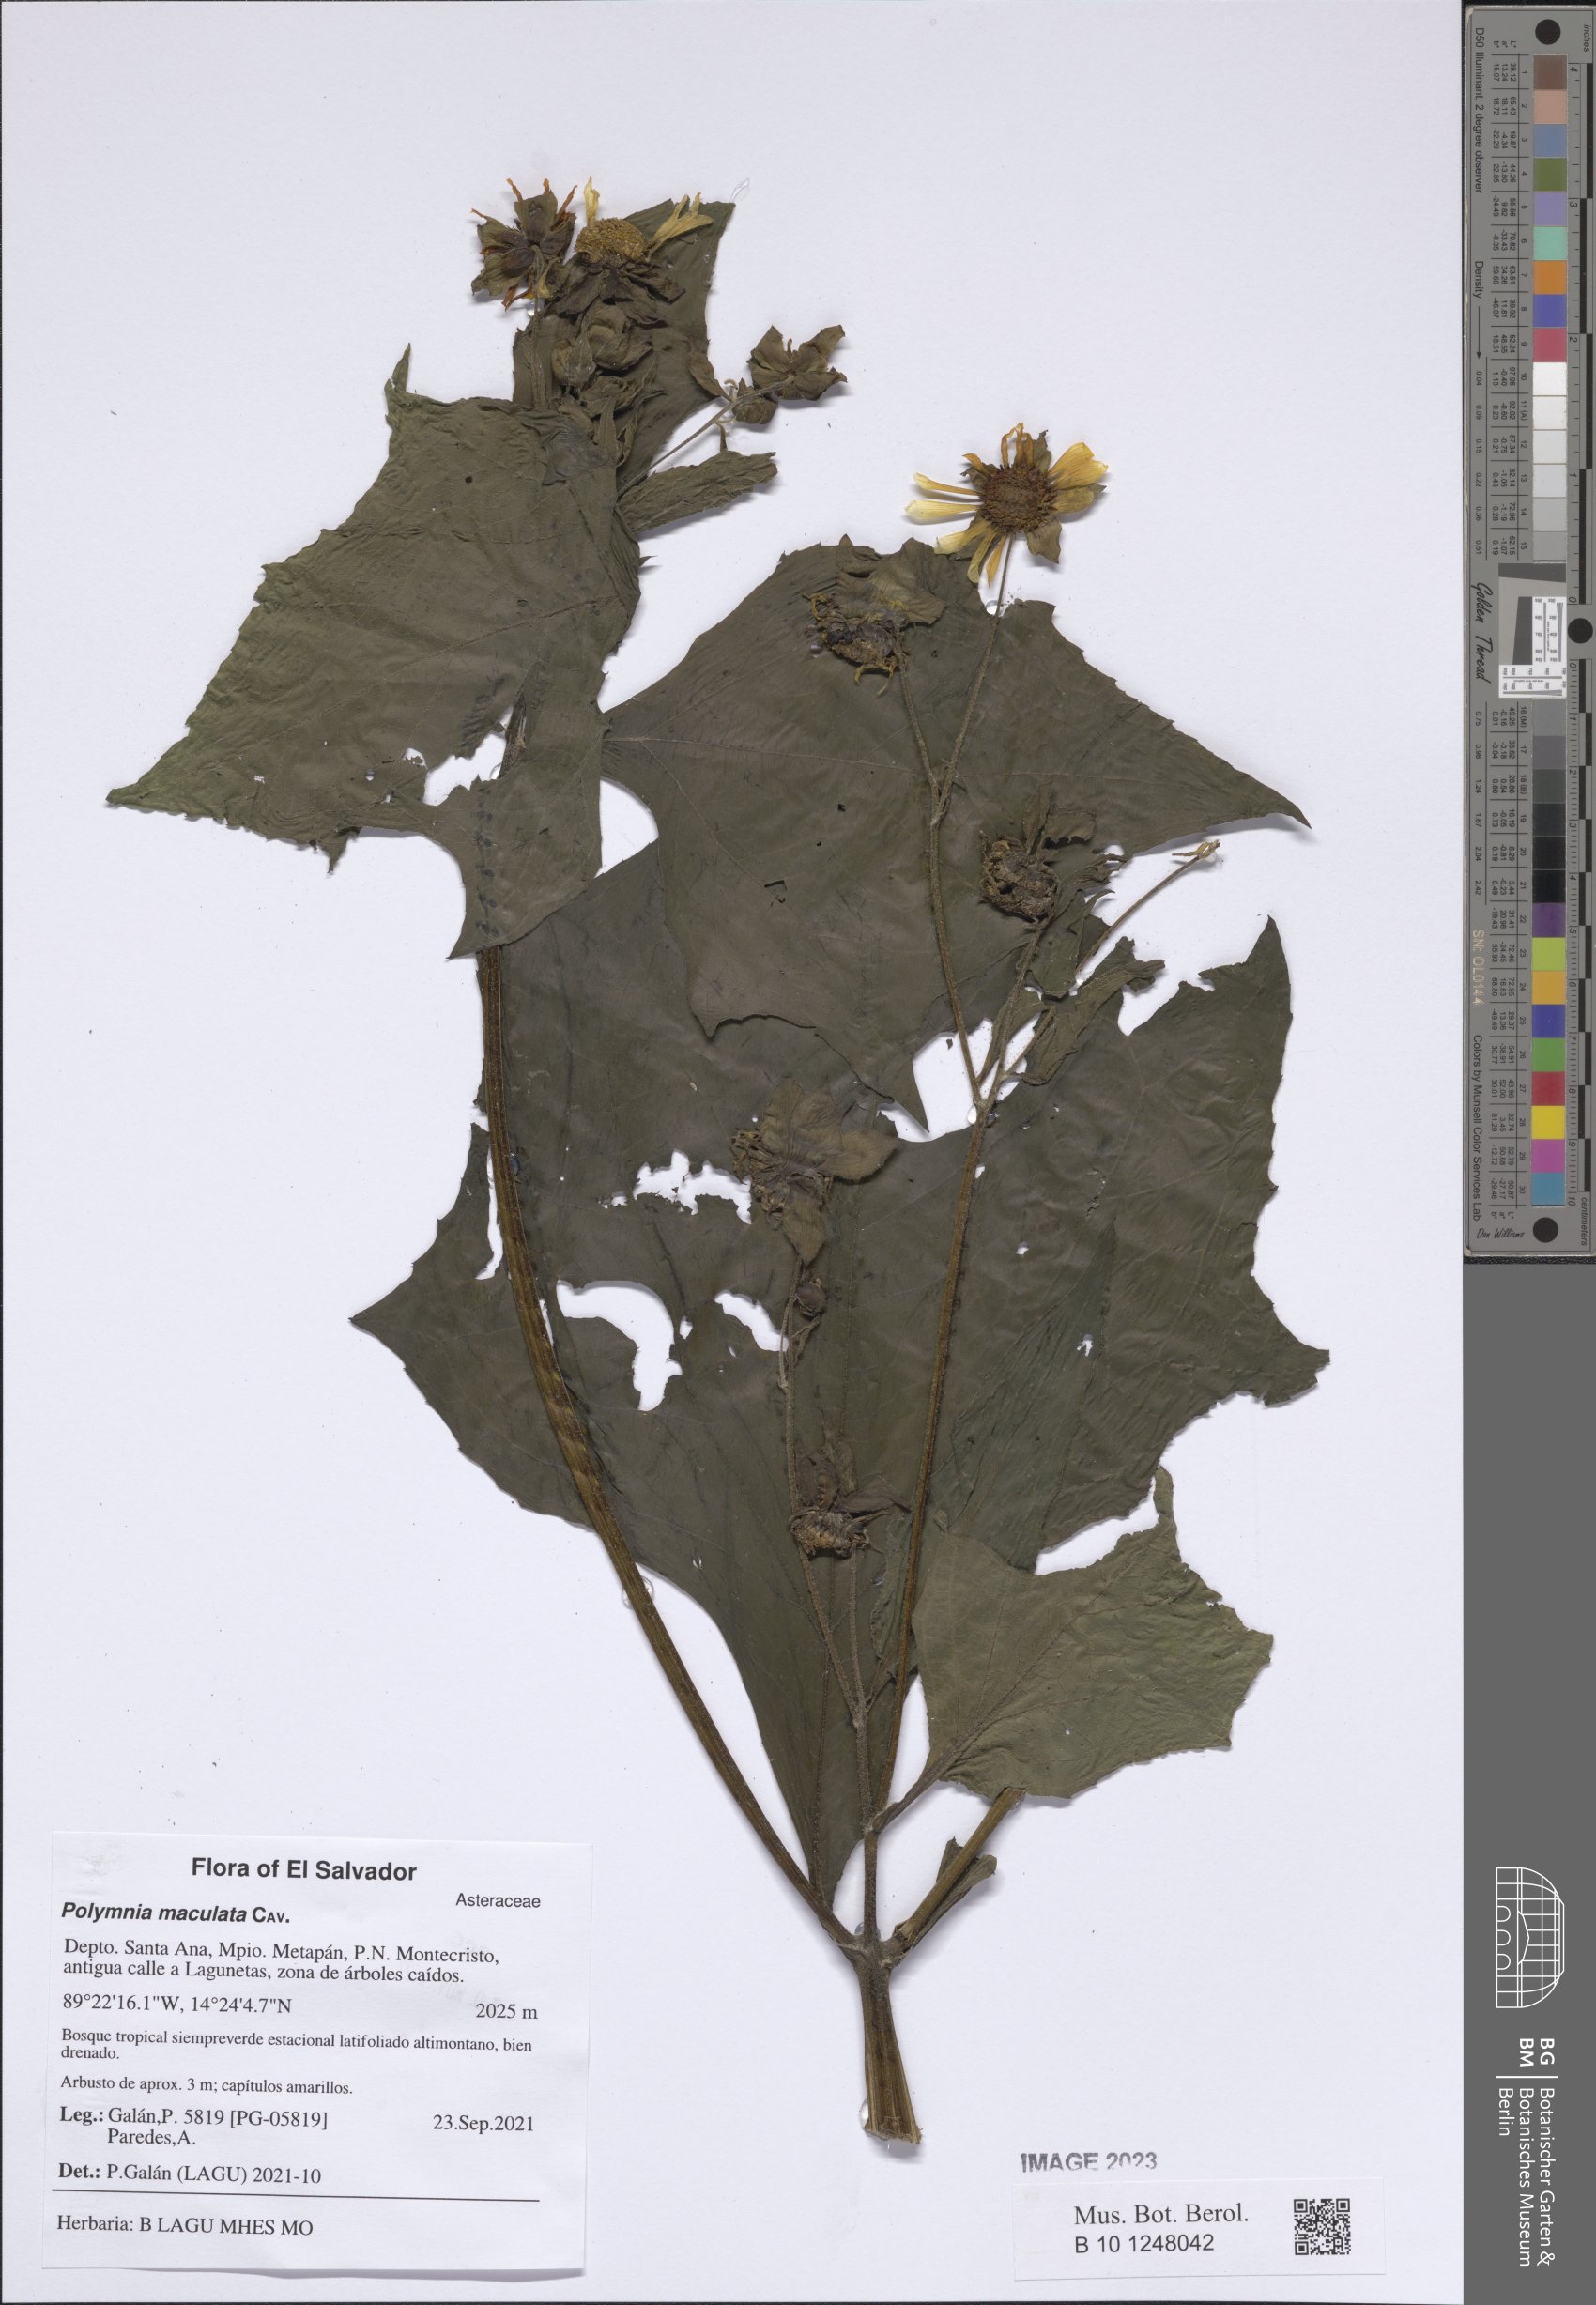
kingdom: Plantae
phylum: Tracheophyta
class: Magnoliopsida
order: Asterales
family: Asteraceae
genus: Smallanthus
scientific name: Smallanthus maculatus
